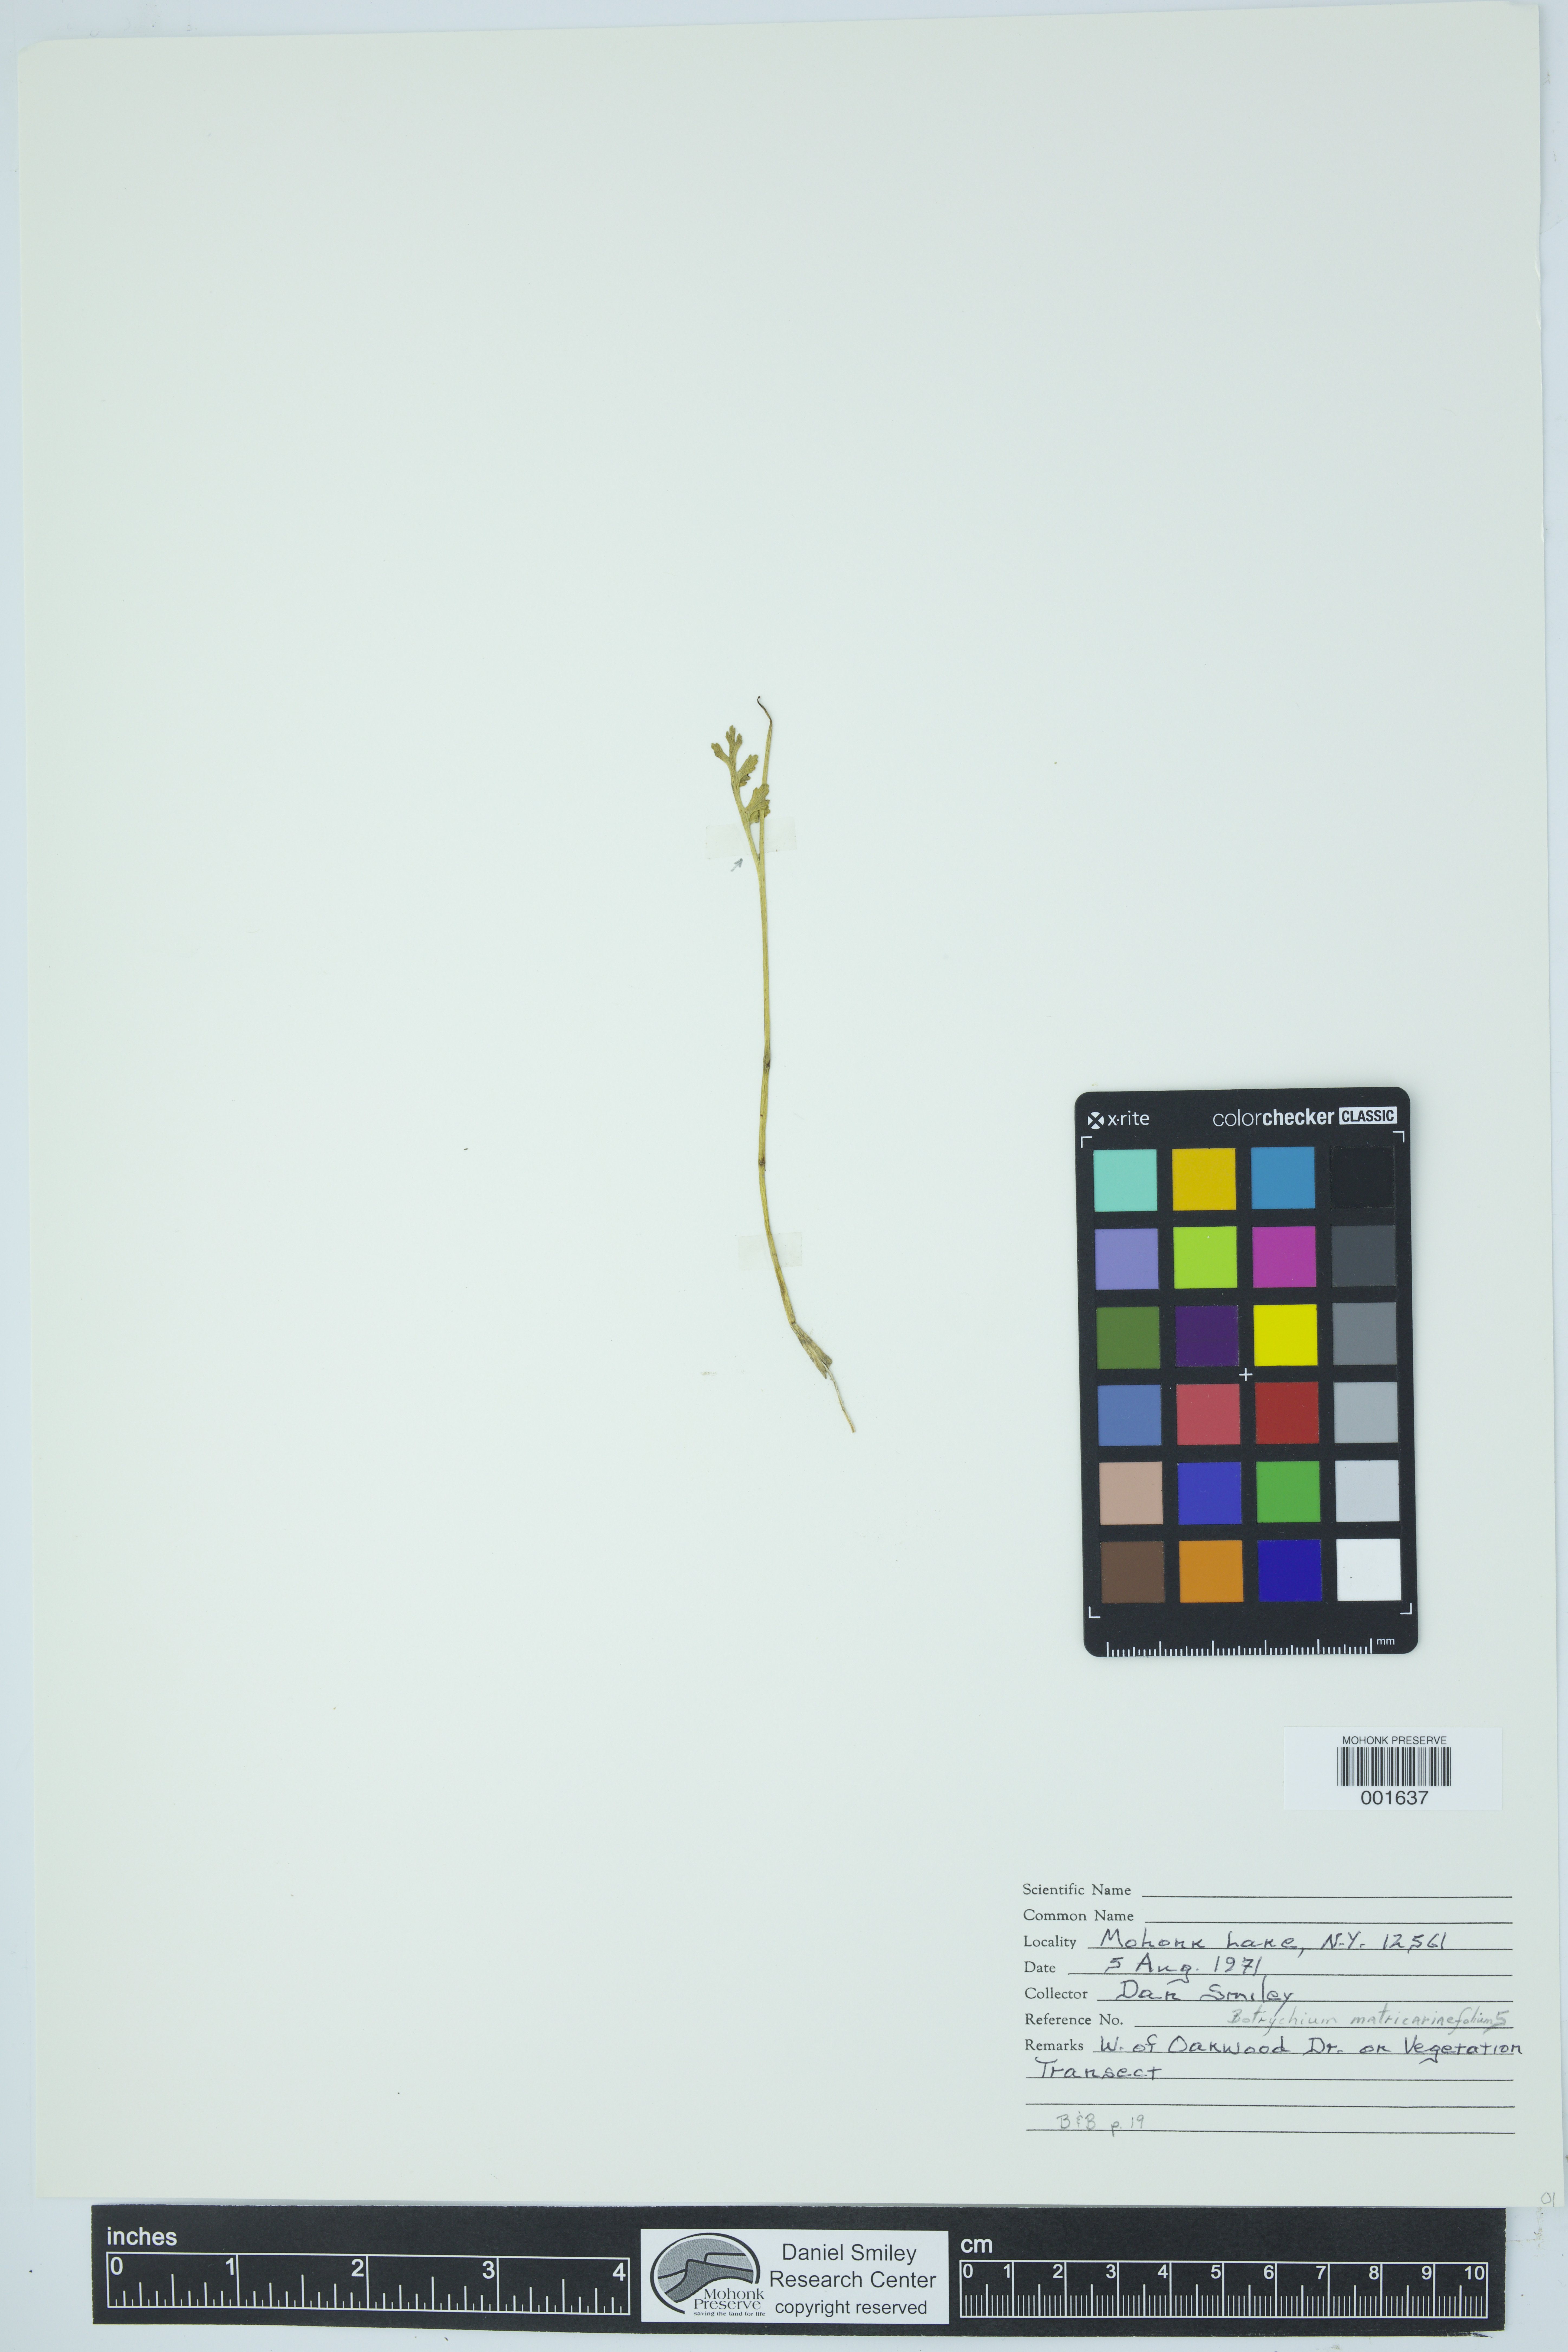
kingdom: Plantae
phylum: Tracheophyta
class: Polypodiopsida
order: Ophioglossales
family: Ophioglossaceae
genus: Botrychium
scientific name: Botrychium matricariifolium
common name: Branched moonwort
